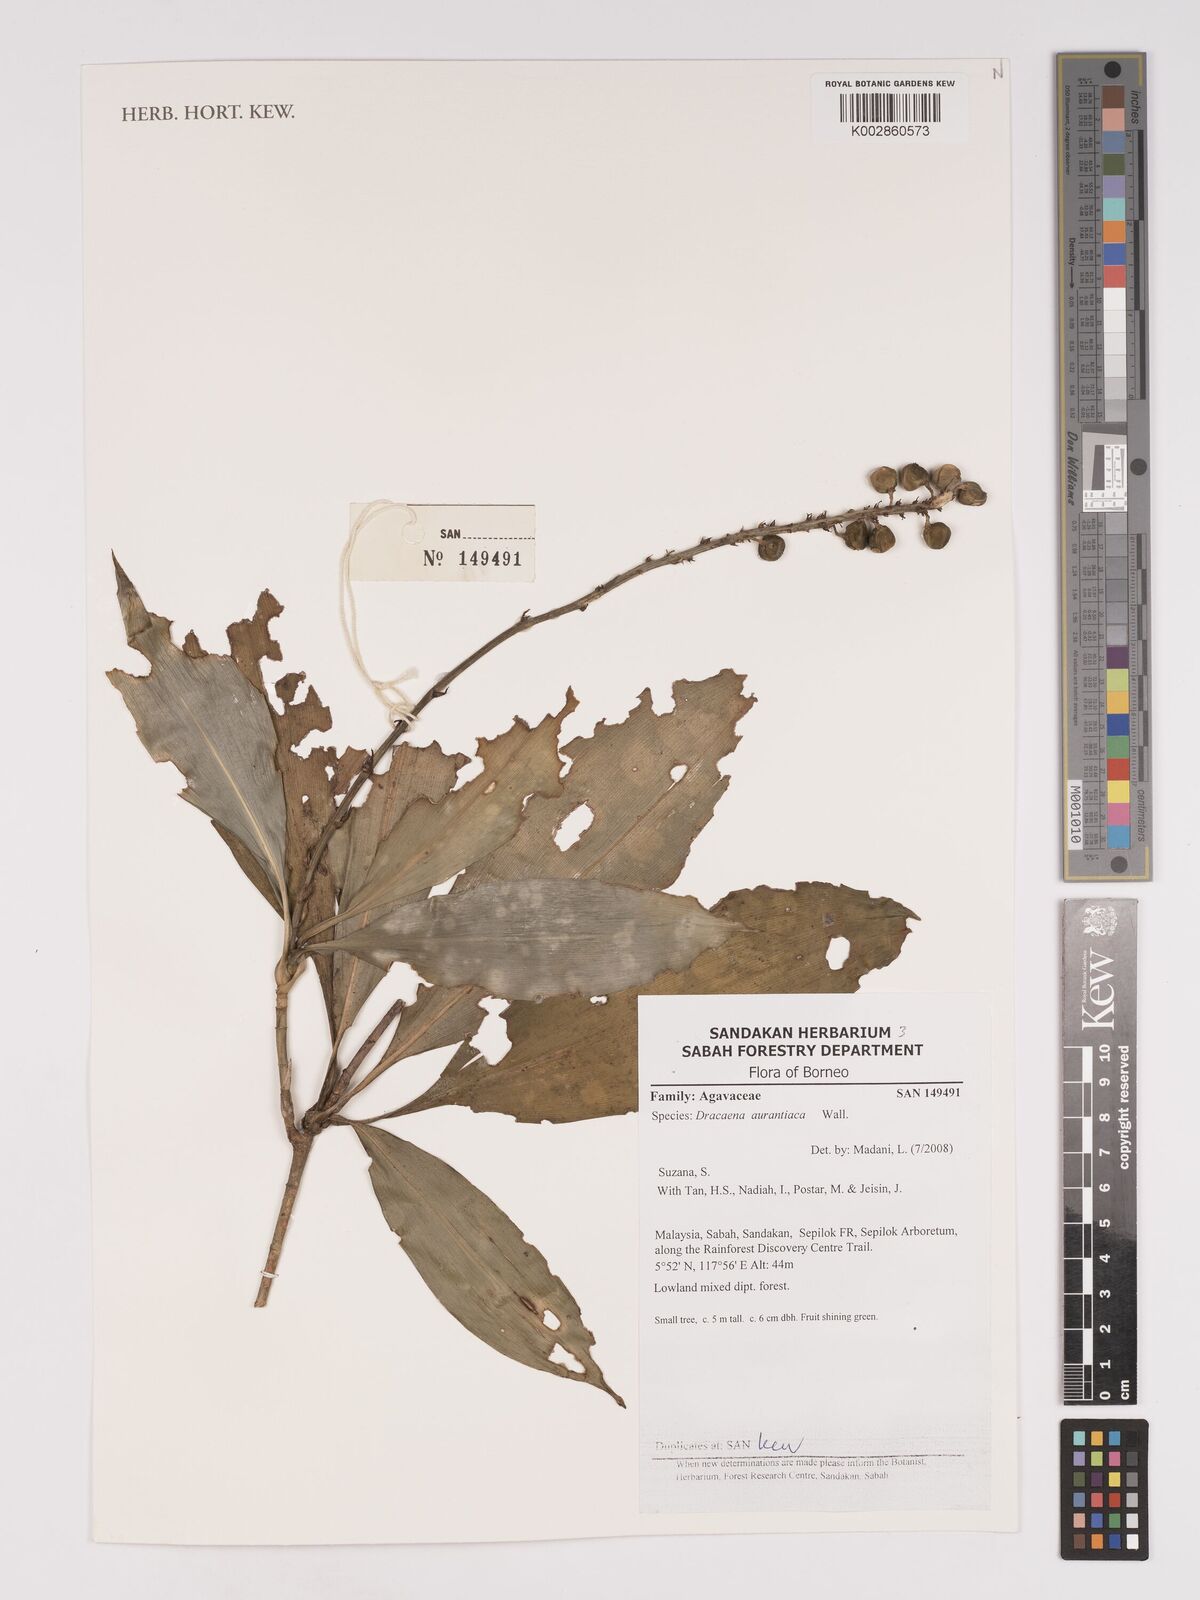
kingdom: Plantae
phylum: Tracheophyta
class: Liliopsida
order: Asparagales
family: Asparagaceae
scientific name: Asparagaceae
